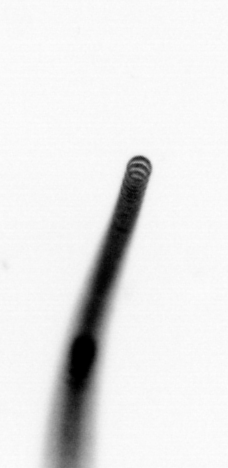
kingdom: Chromista
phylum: Ochrophyta
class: Bacillariophyceae
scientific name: Bacillariophyceae
